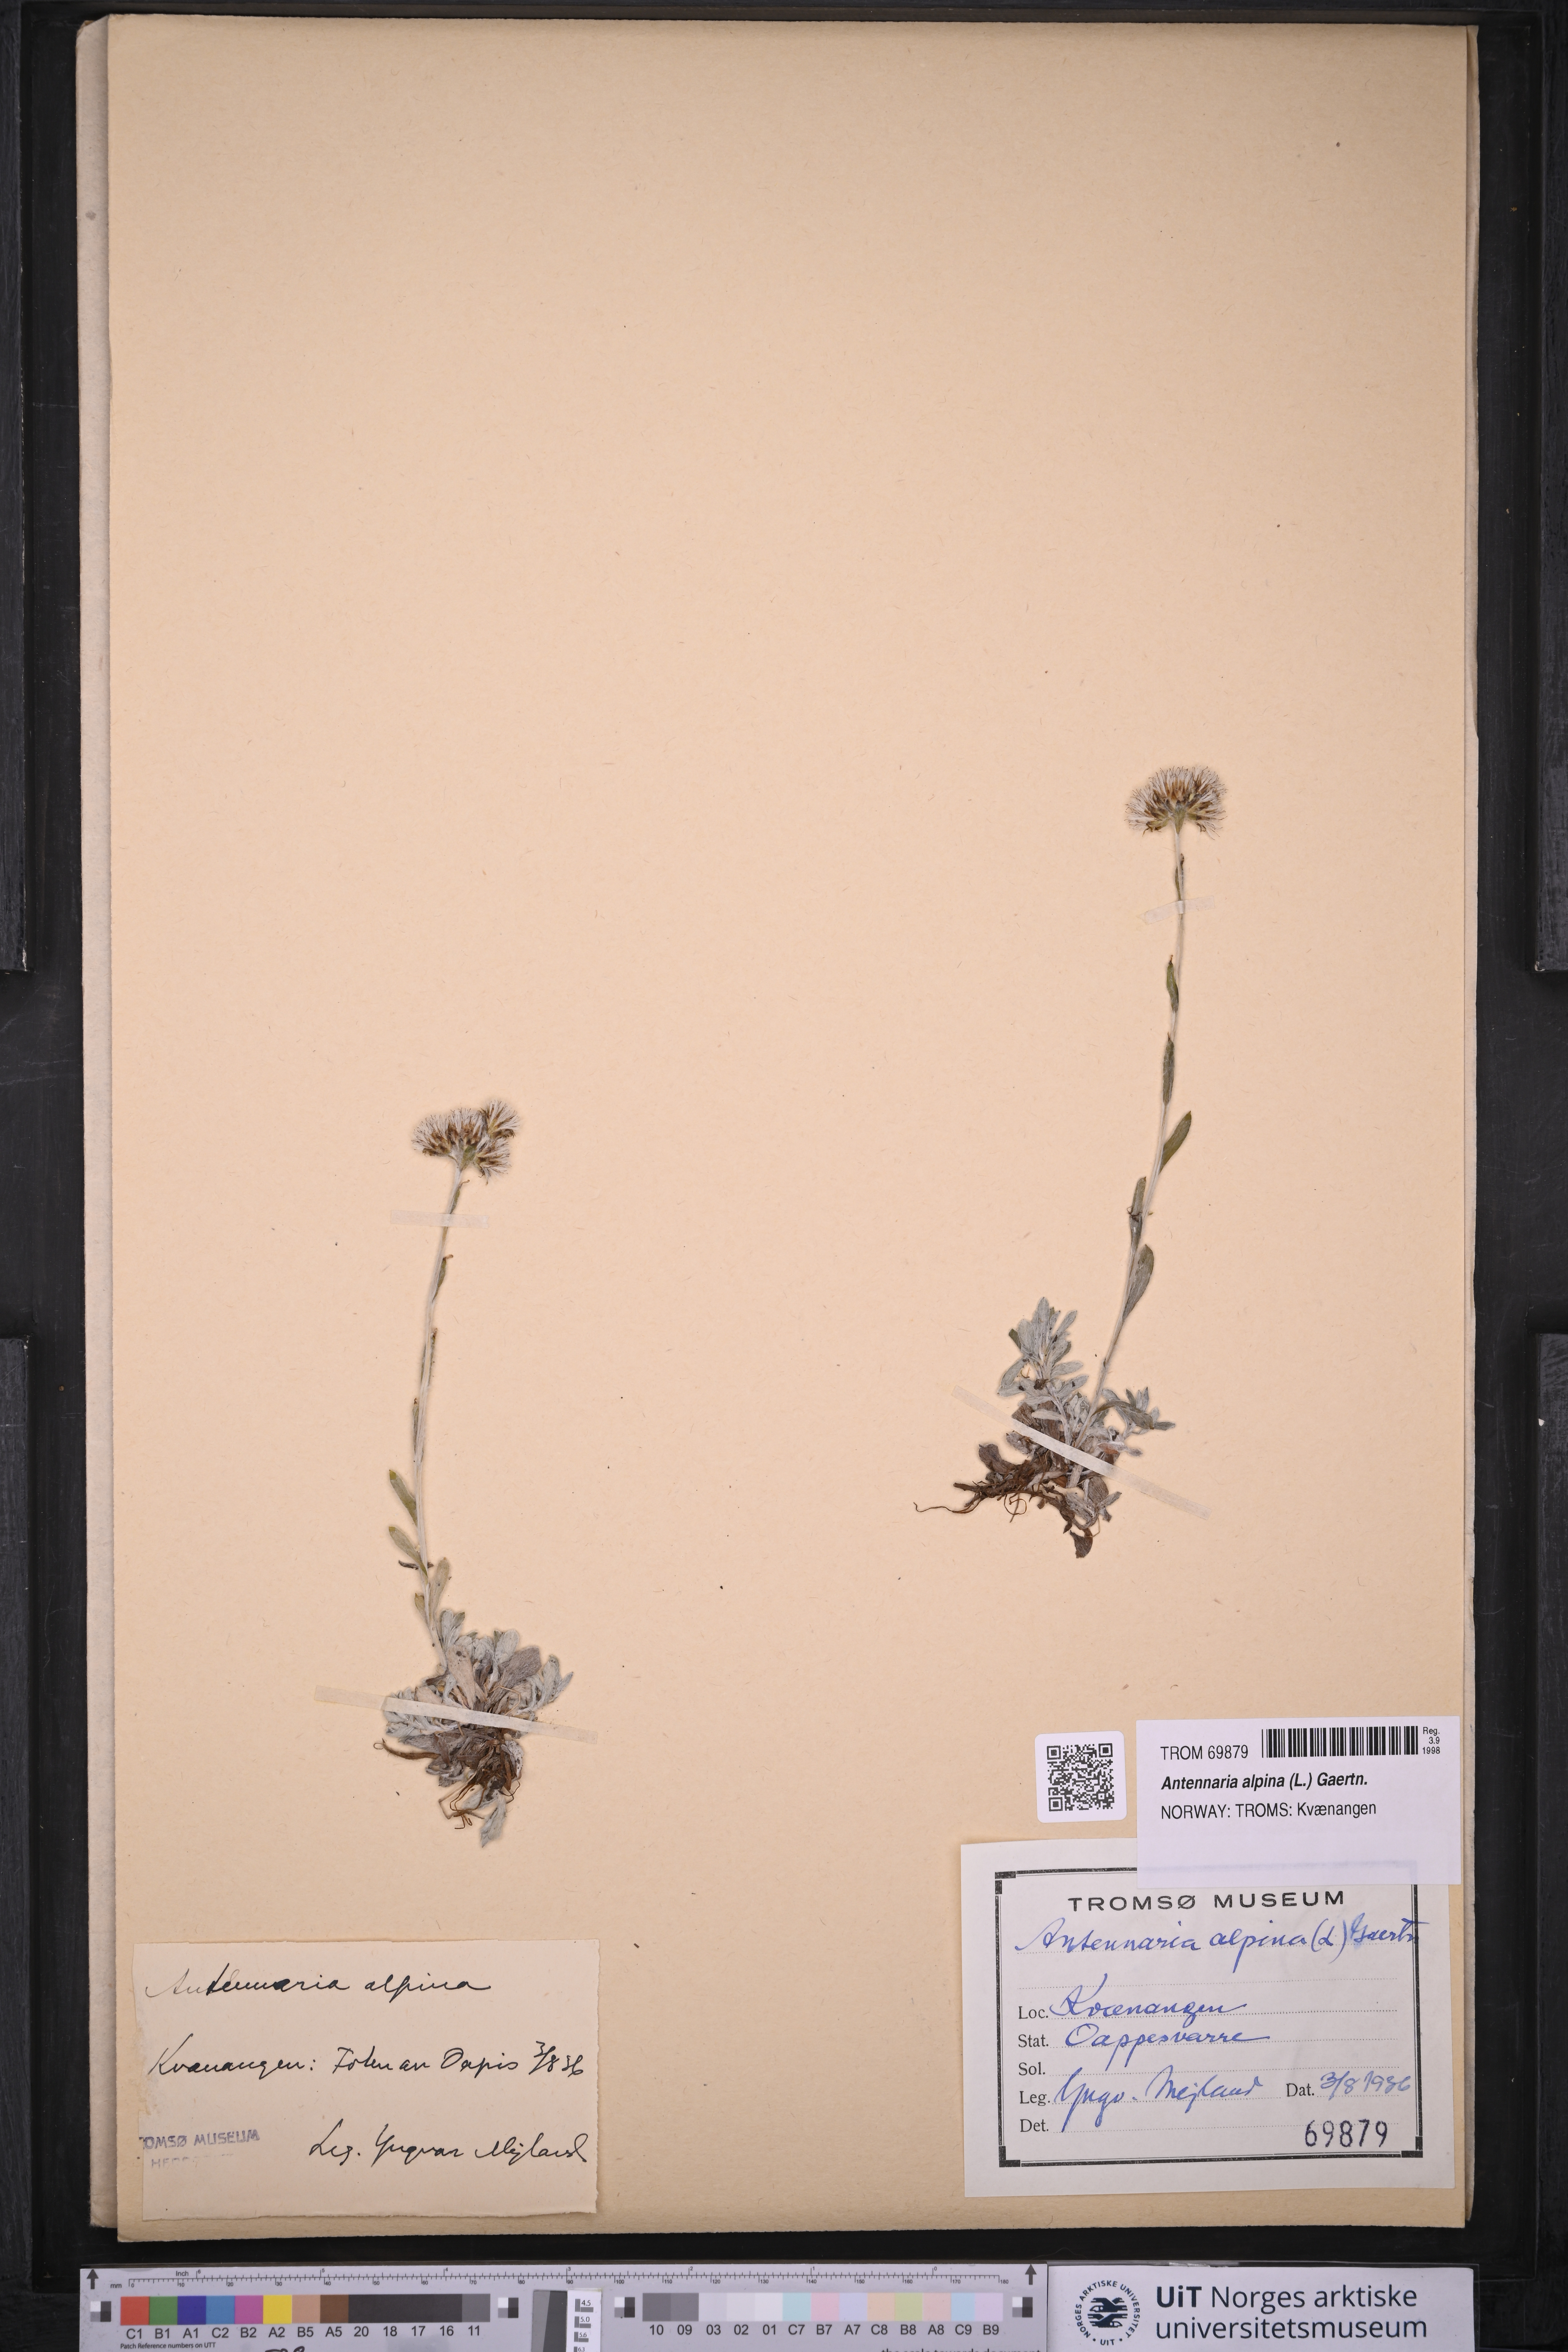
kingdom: Plantae
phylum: Tracheophyta
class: Magnoliopsida
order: Asterales
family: Asteraceae
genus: Antennaria
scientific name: Antennaria alpina
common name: Alpine pussytoes
